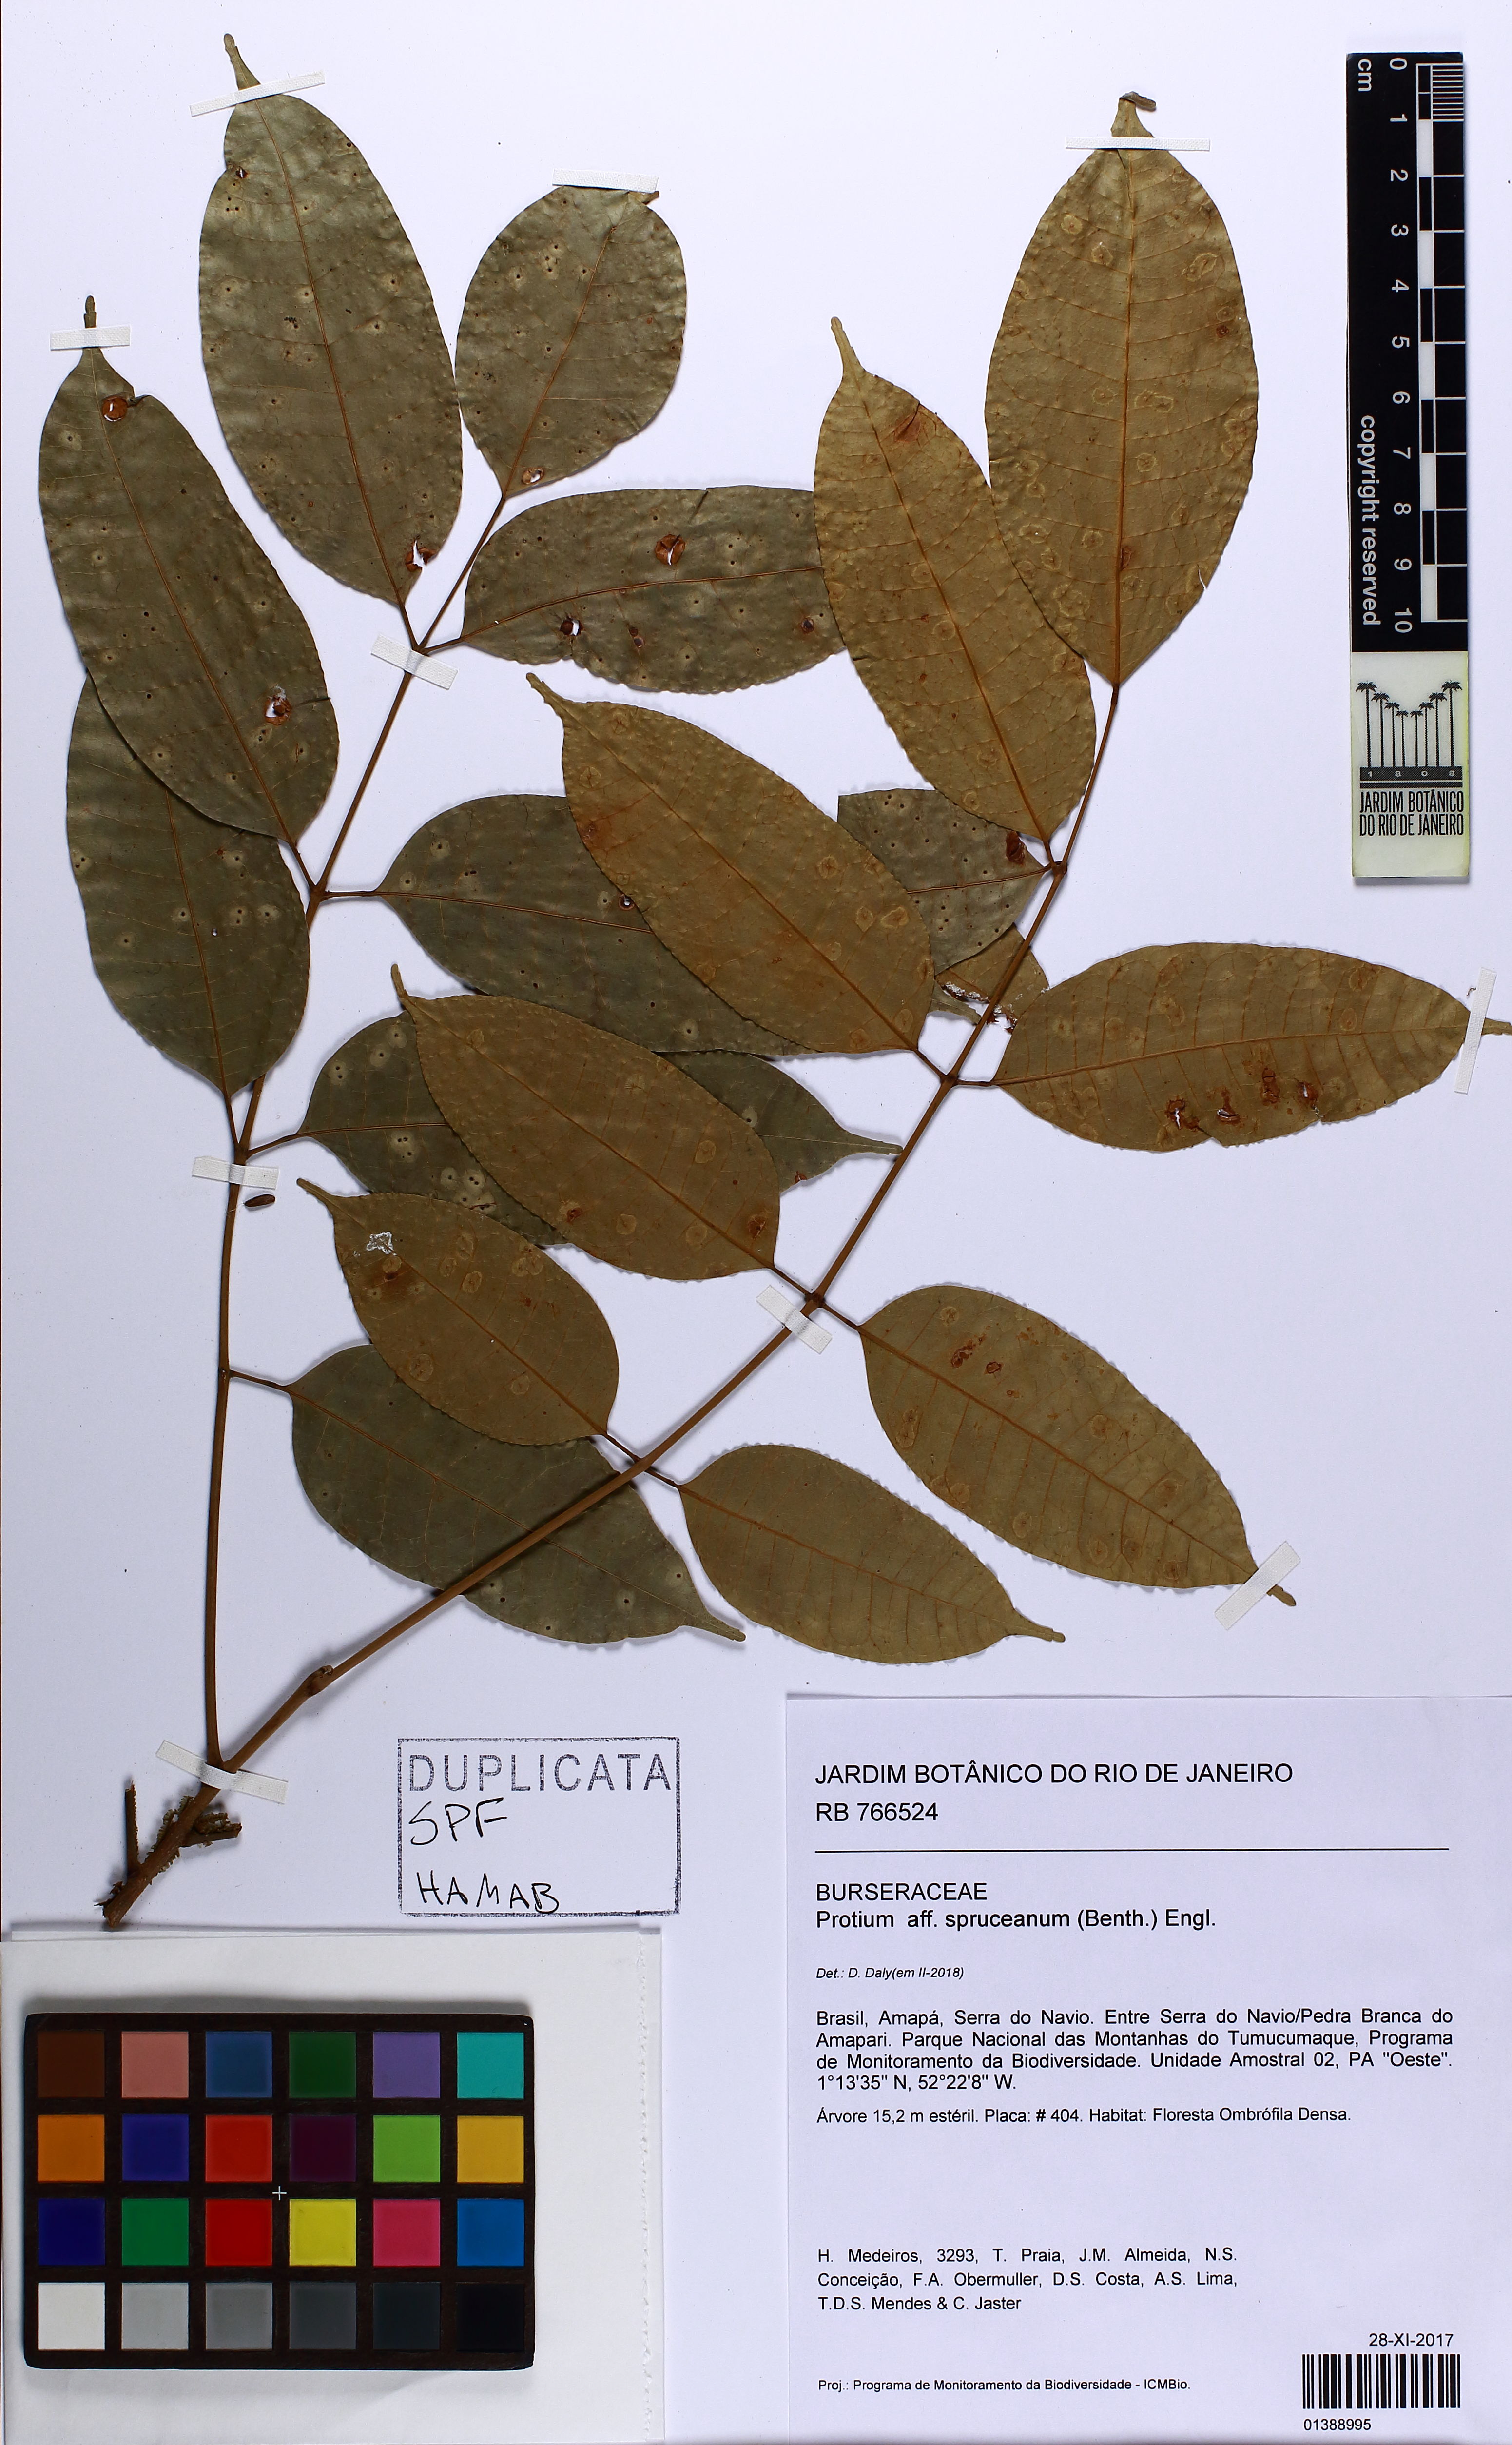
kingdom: Plantae
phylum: Tracheophyta
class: Magnoliopsida
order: Sapindales
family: Burseraceae
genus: Protium
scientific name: Protium spruceanum
